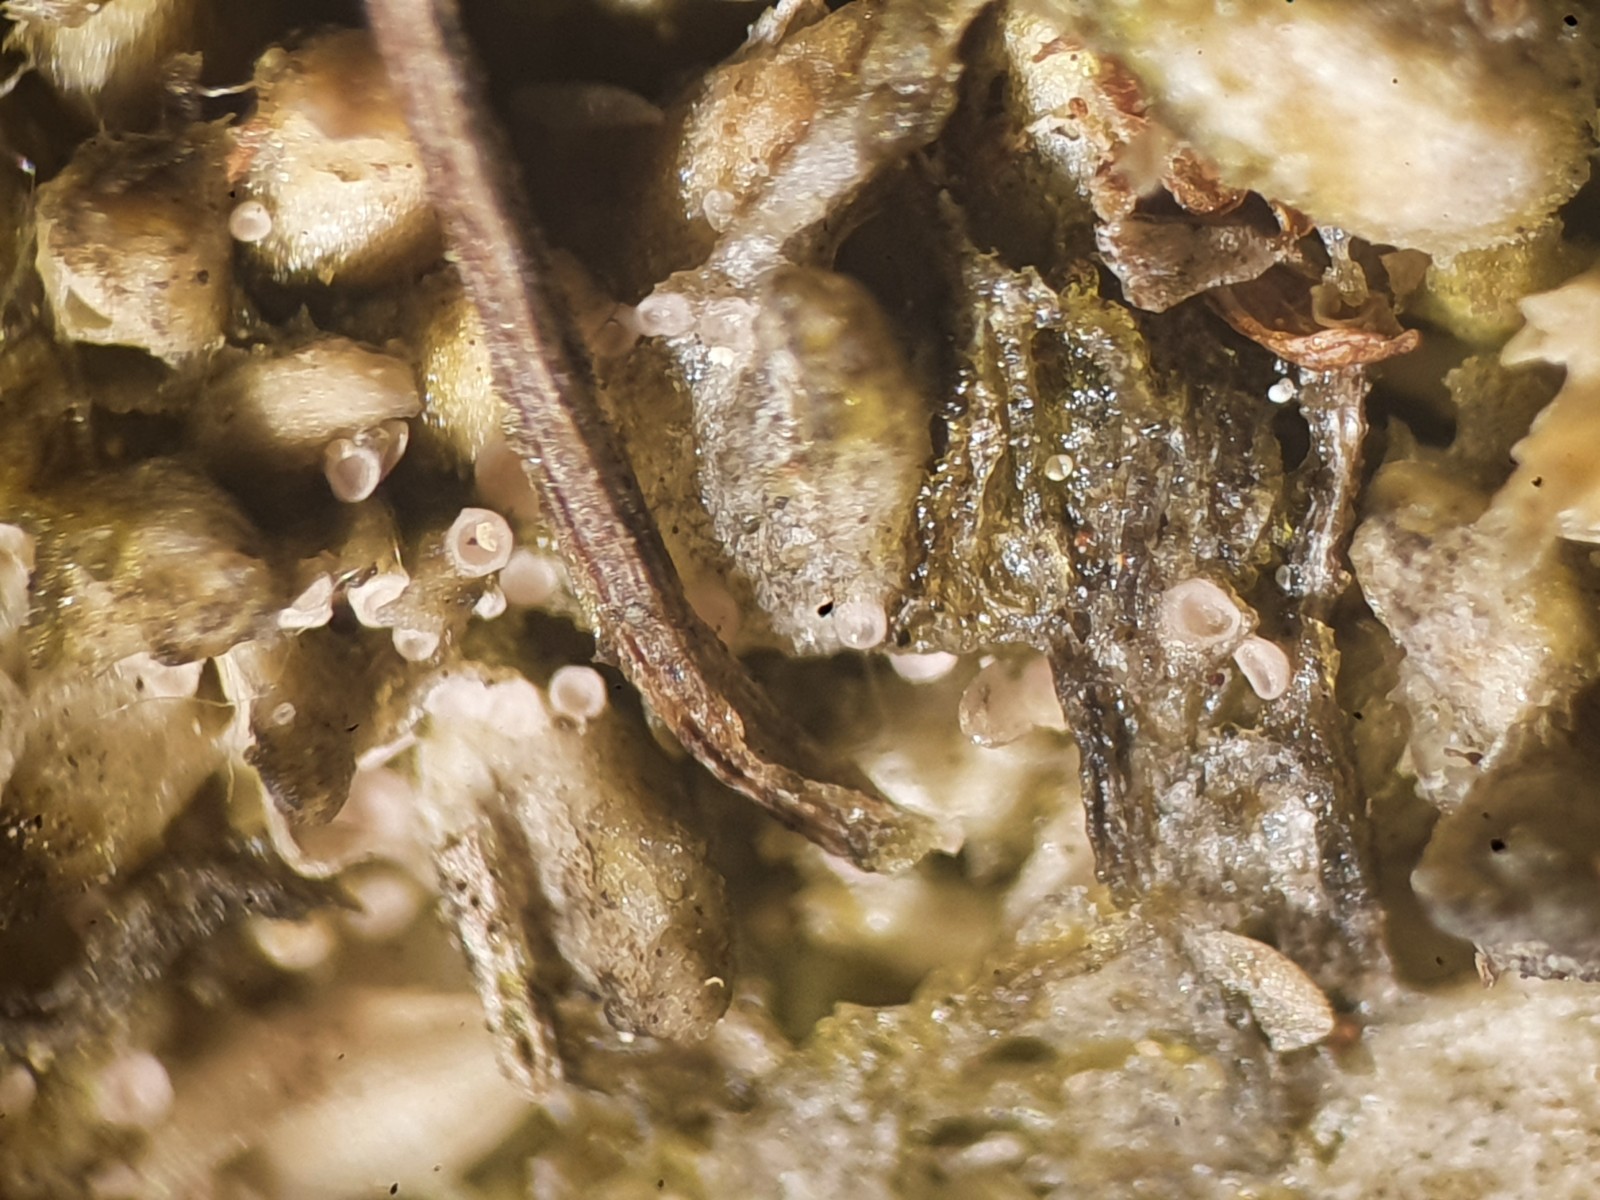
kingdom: Fungi
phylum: Ascomycota
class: Lecanoromycetes
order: Ostropales
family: Stictidaceae
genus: Absconditella
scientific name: Absconditella sphagnorum
